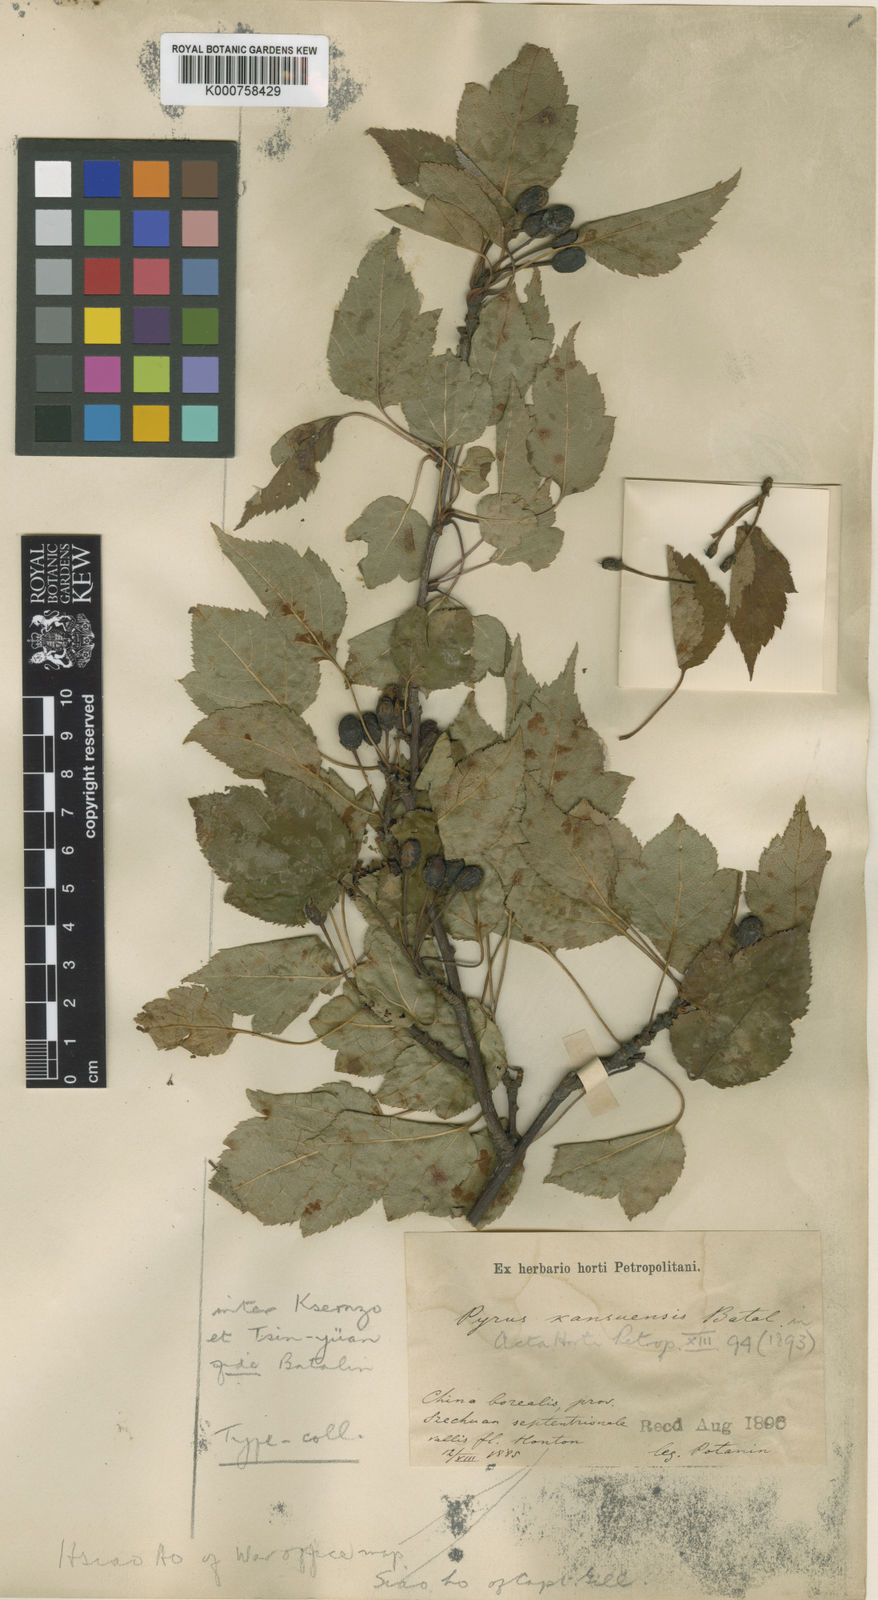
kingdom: Plantae
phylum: Tracheophyta
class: Magnoliopsida
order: Rosales
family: Rosaceae
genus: Malus
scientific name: Malus kansuensis
